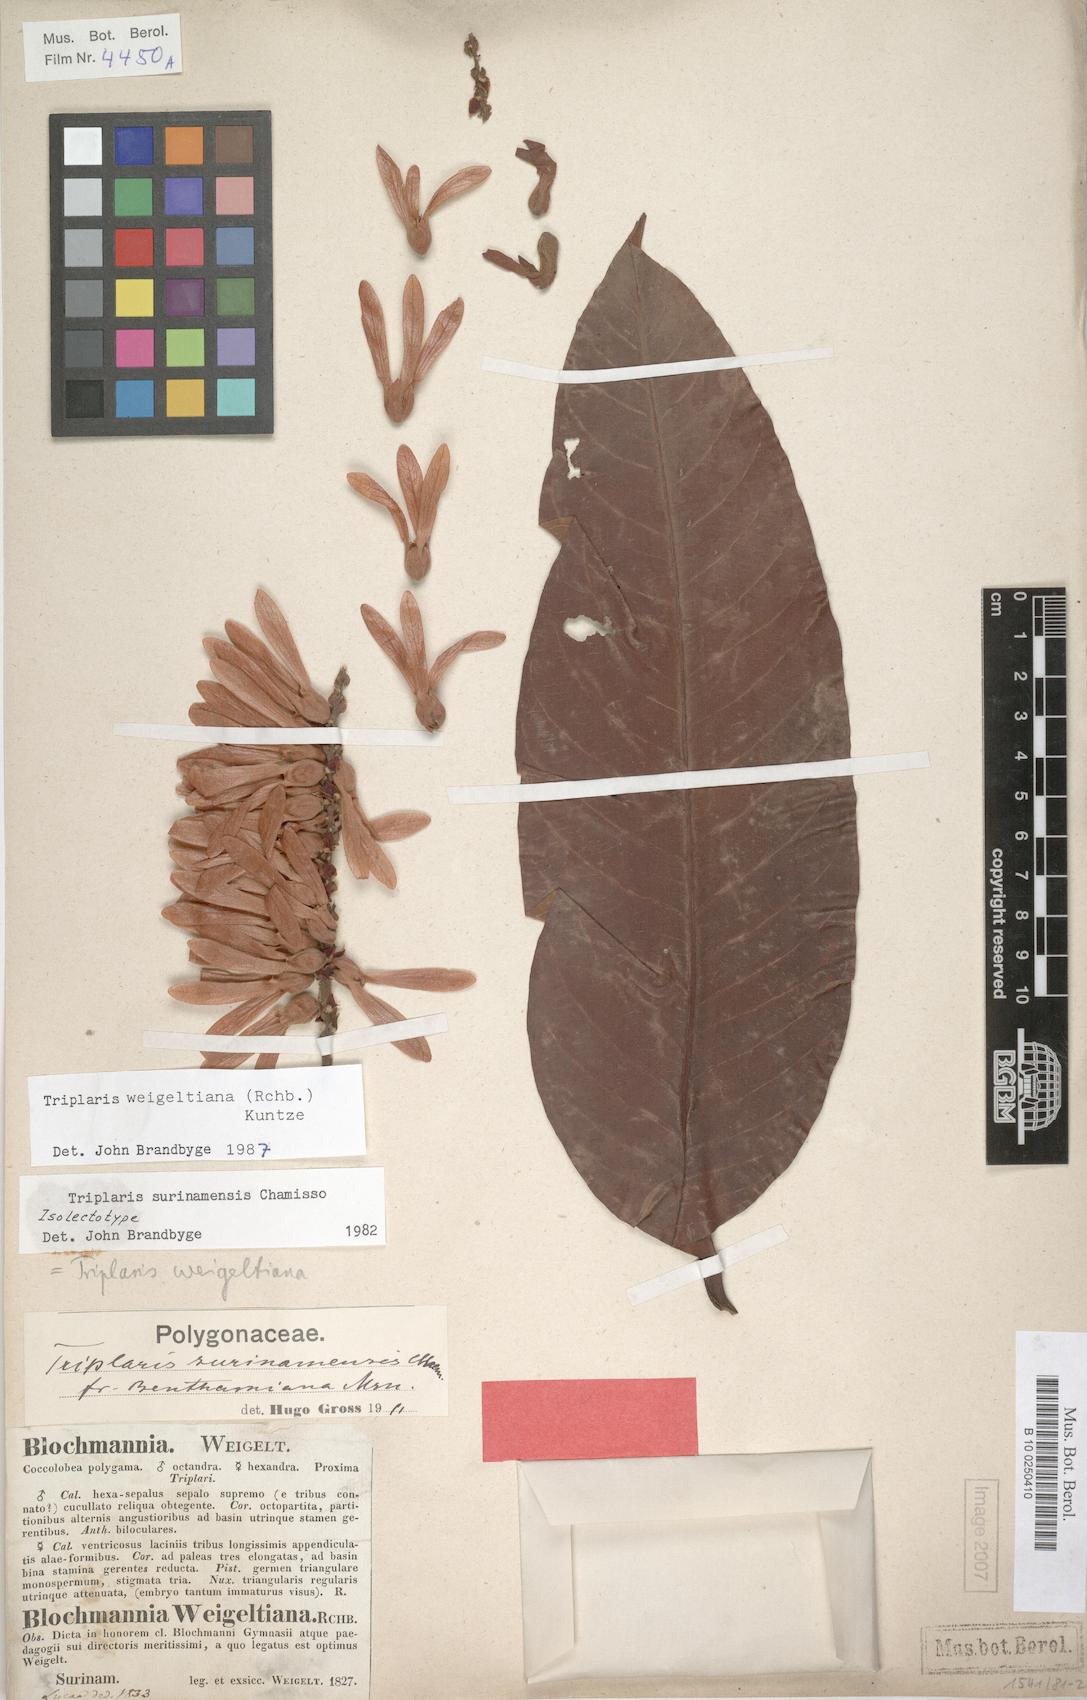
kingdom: Plantae
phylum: Tracheophyta
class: Magnoliopsida
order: Caryophyllales
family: Polygonaceae
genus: Triplaris
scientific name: Triplaris weigeltiana
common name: Long john
